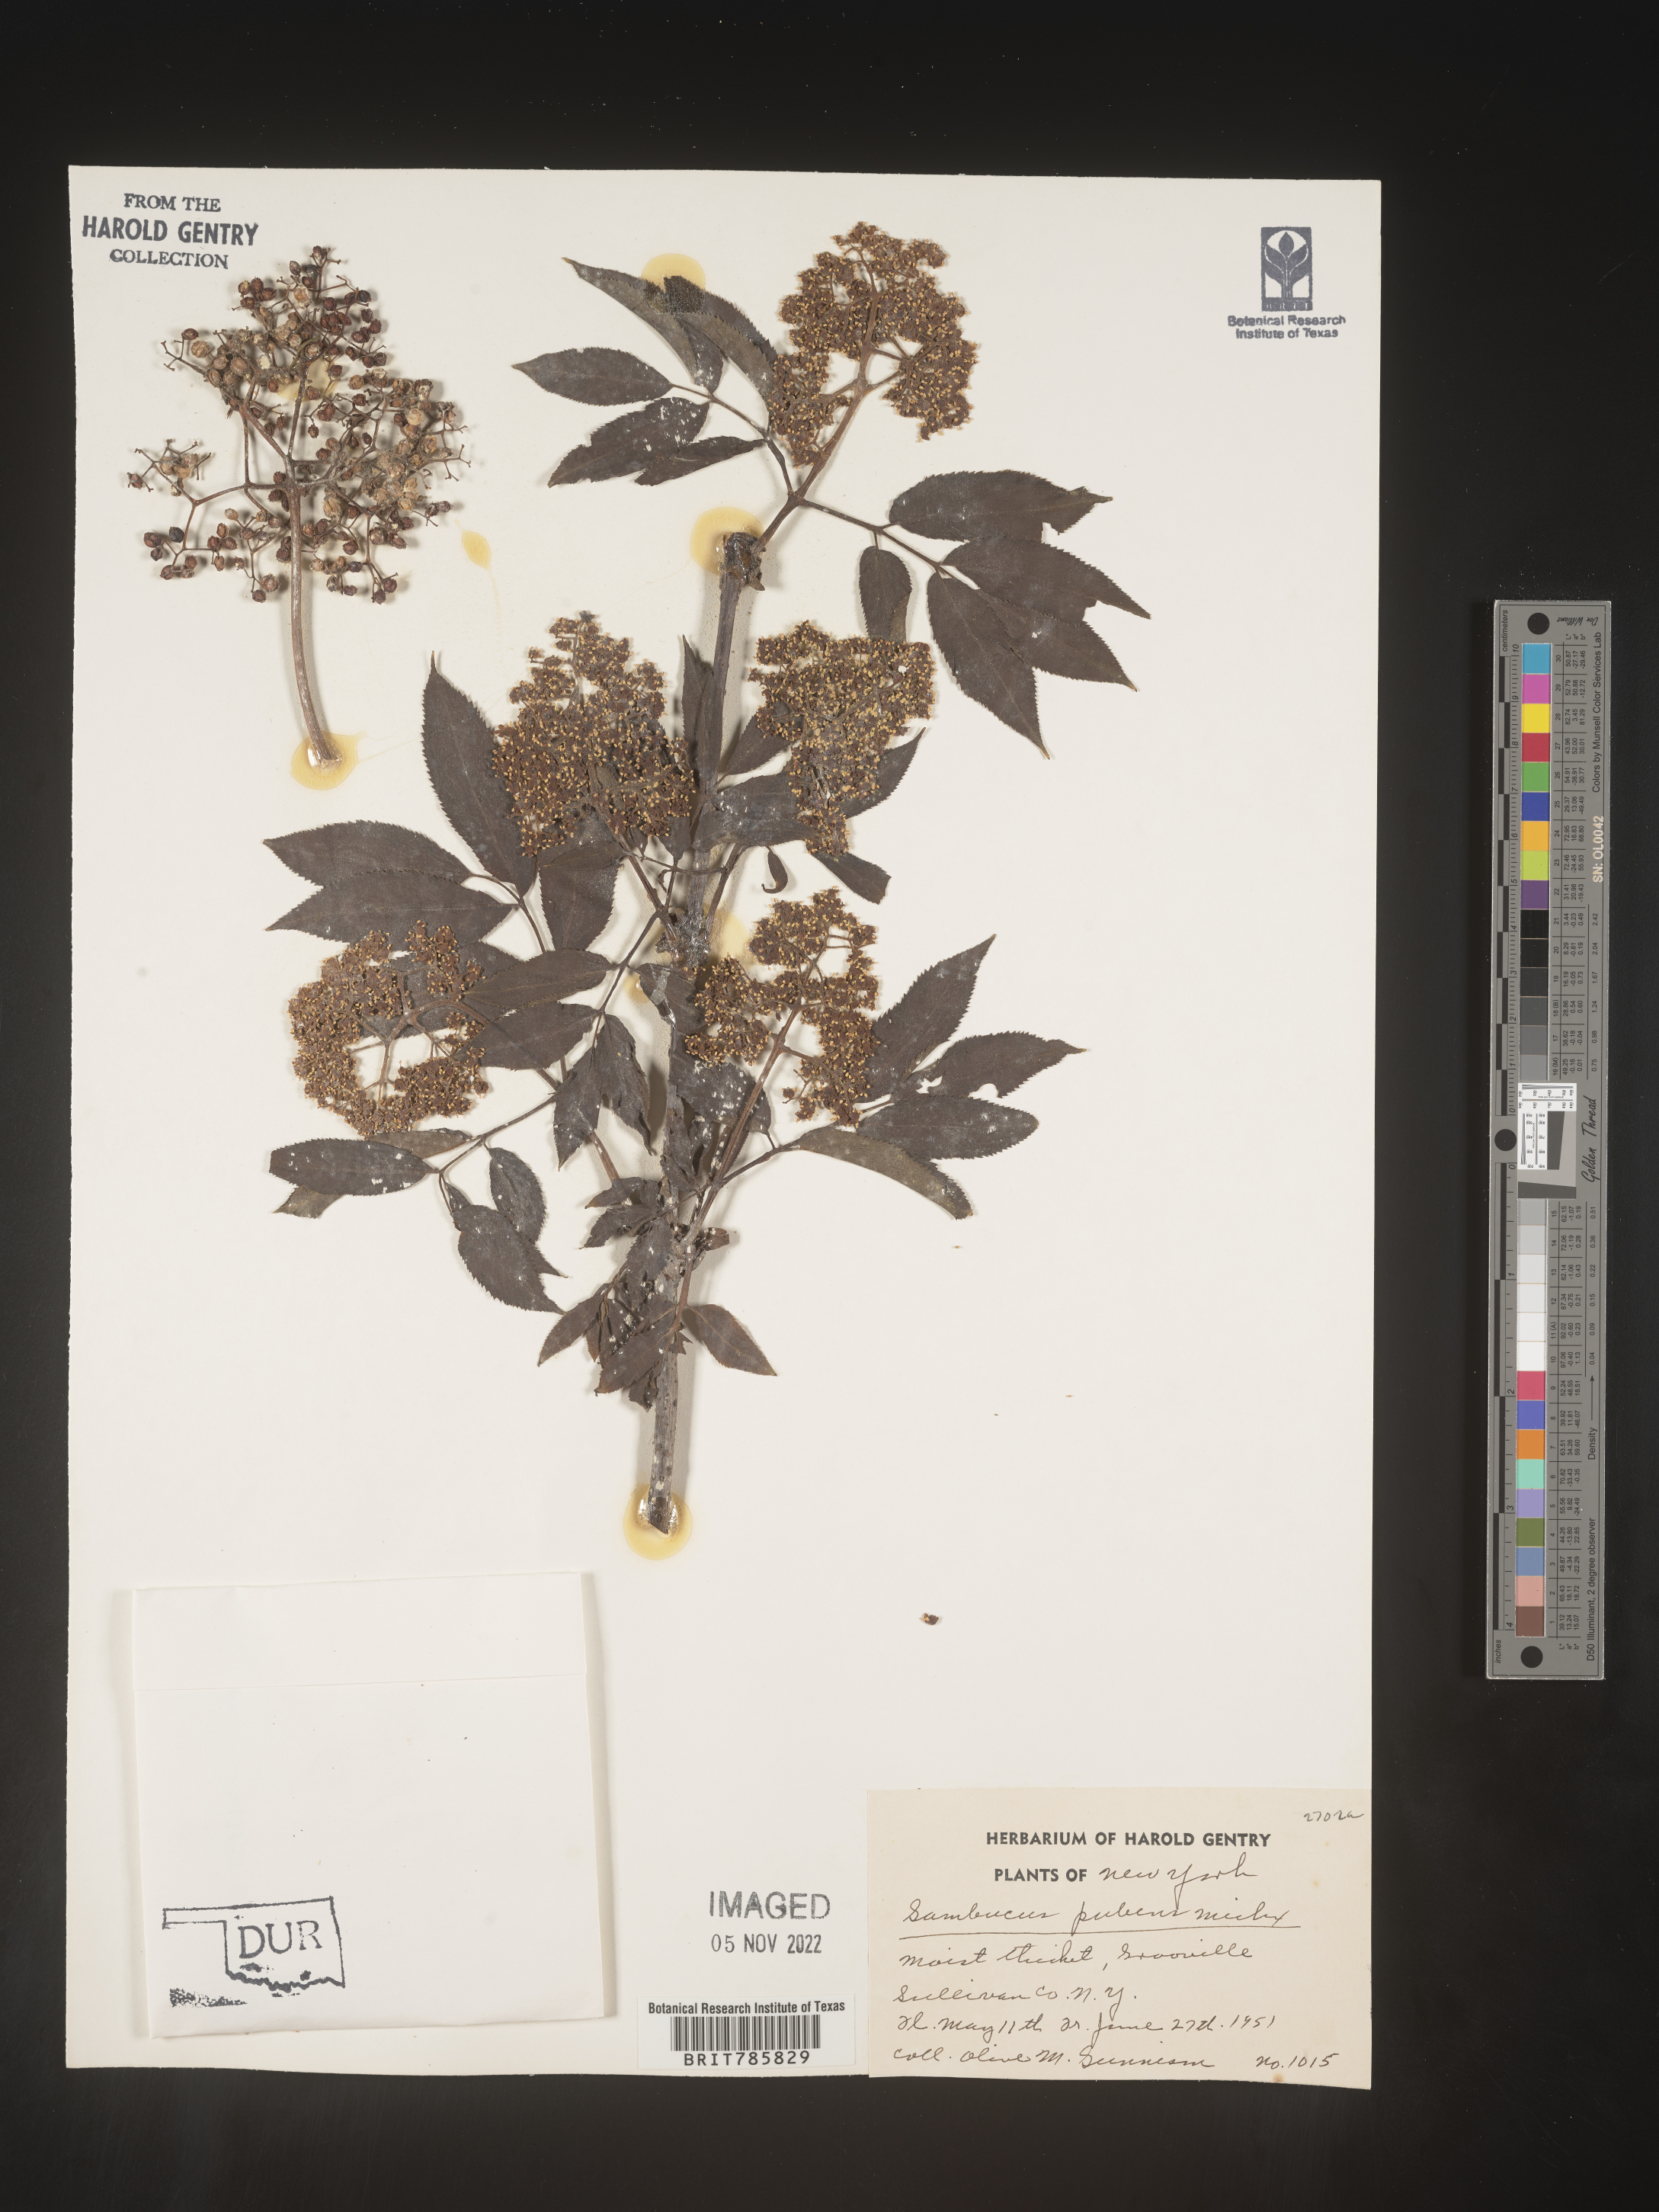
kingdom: Plantae
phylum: Tracheophyta
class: Magnoliopsida
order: Dipsacales
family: Viburnaceae
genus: Sambucus
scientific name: Sambucus
